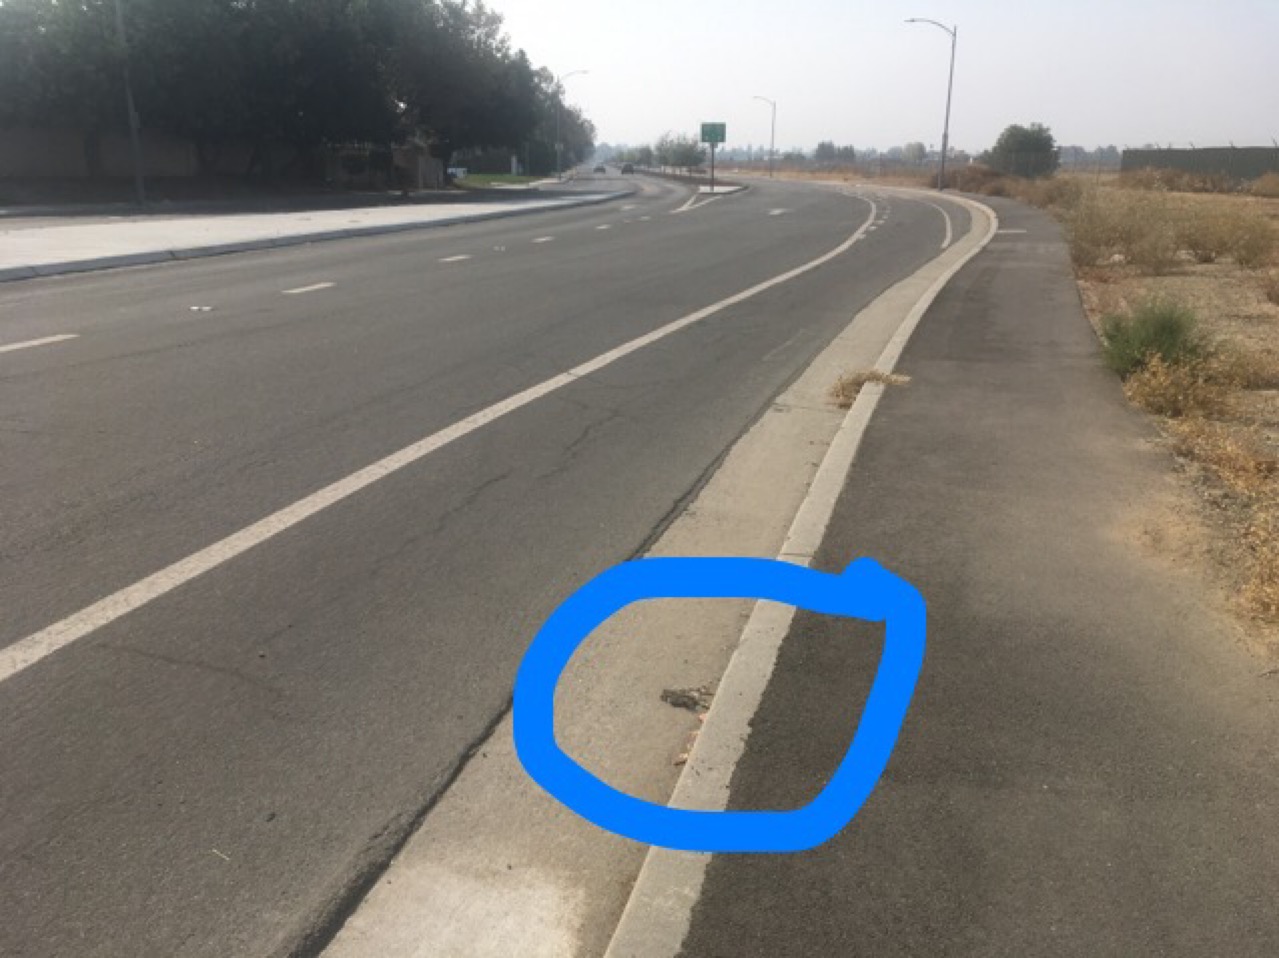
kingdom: Animalia
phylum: Chordata
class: Mammalia
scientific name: Mammalia
